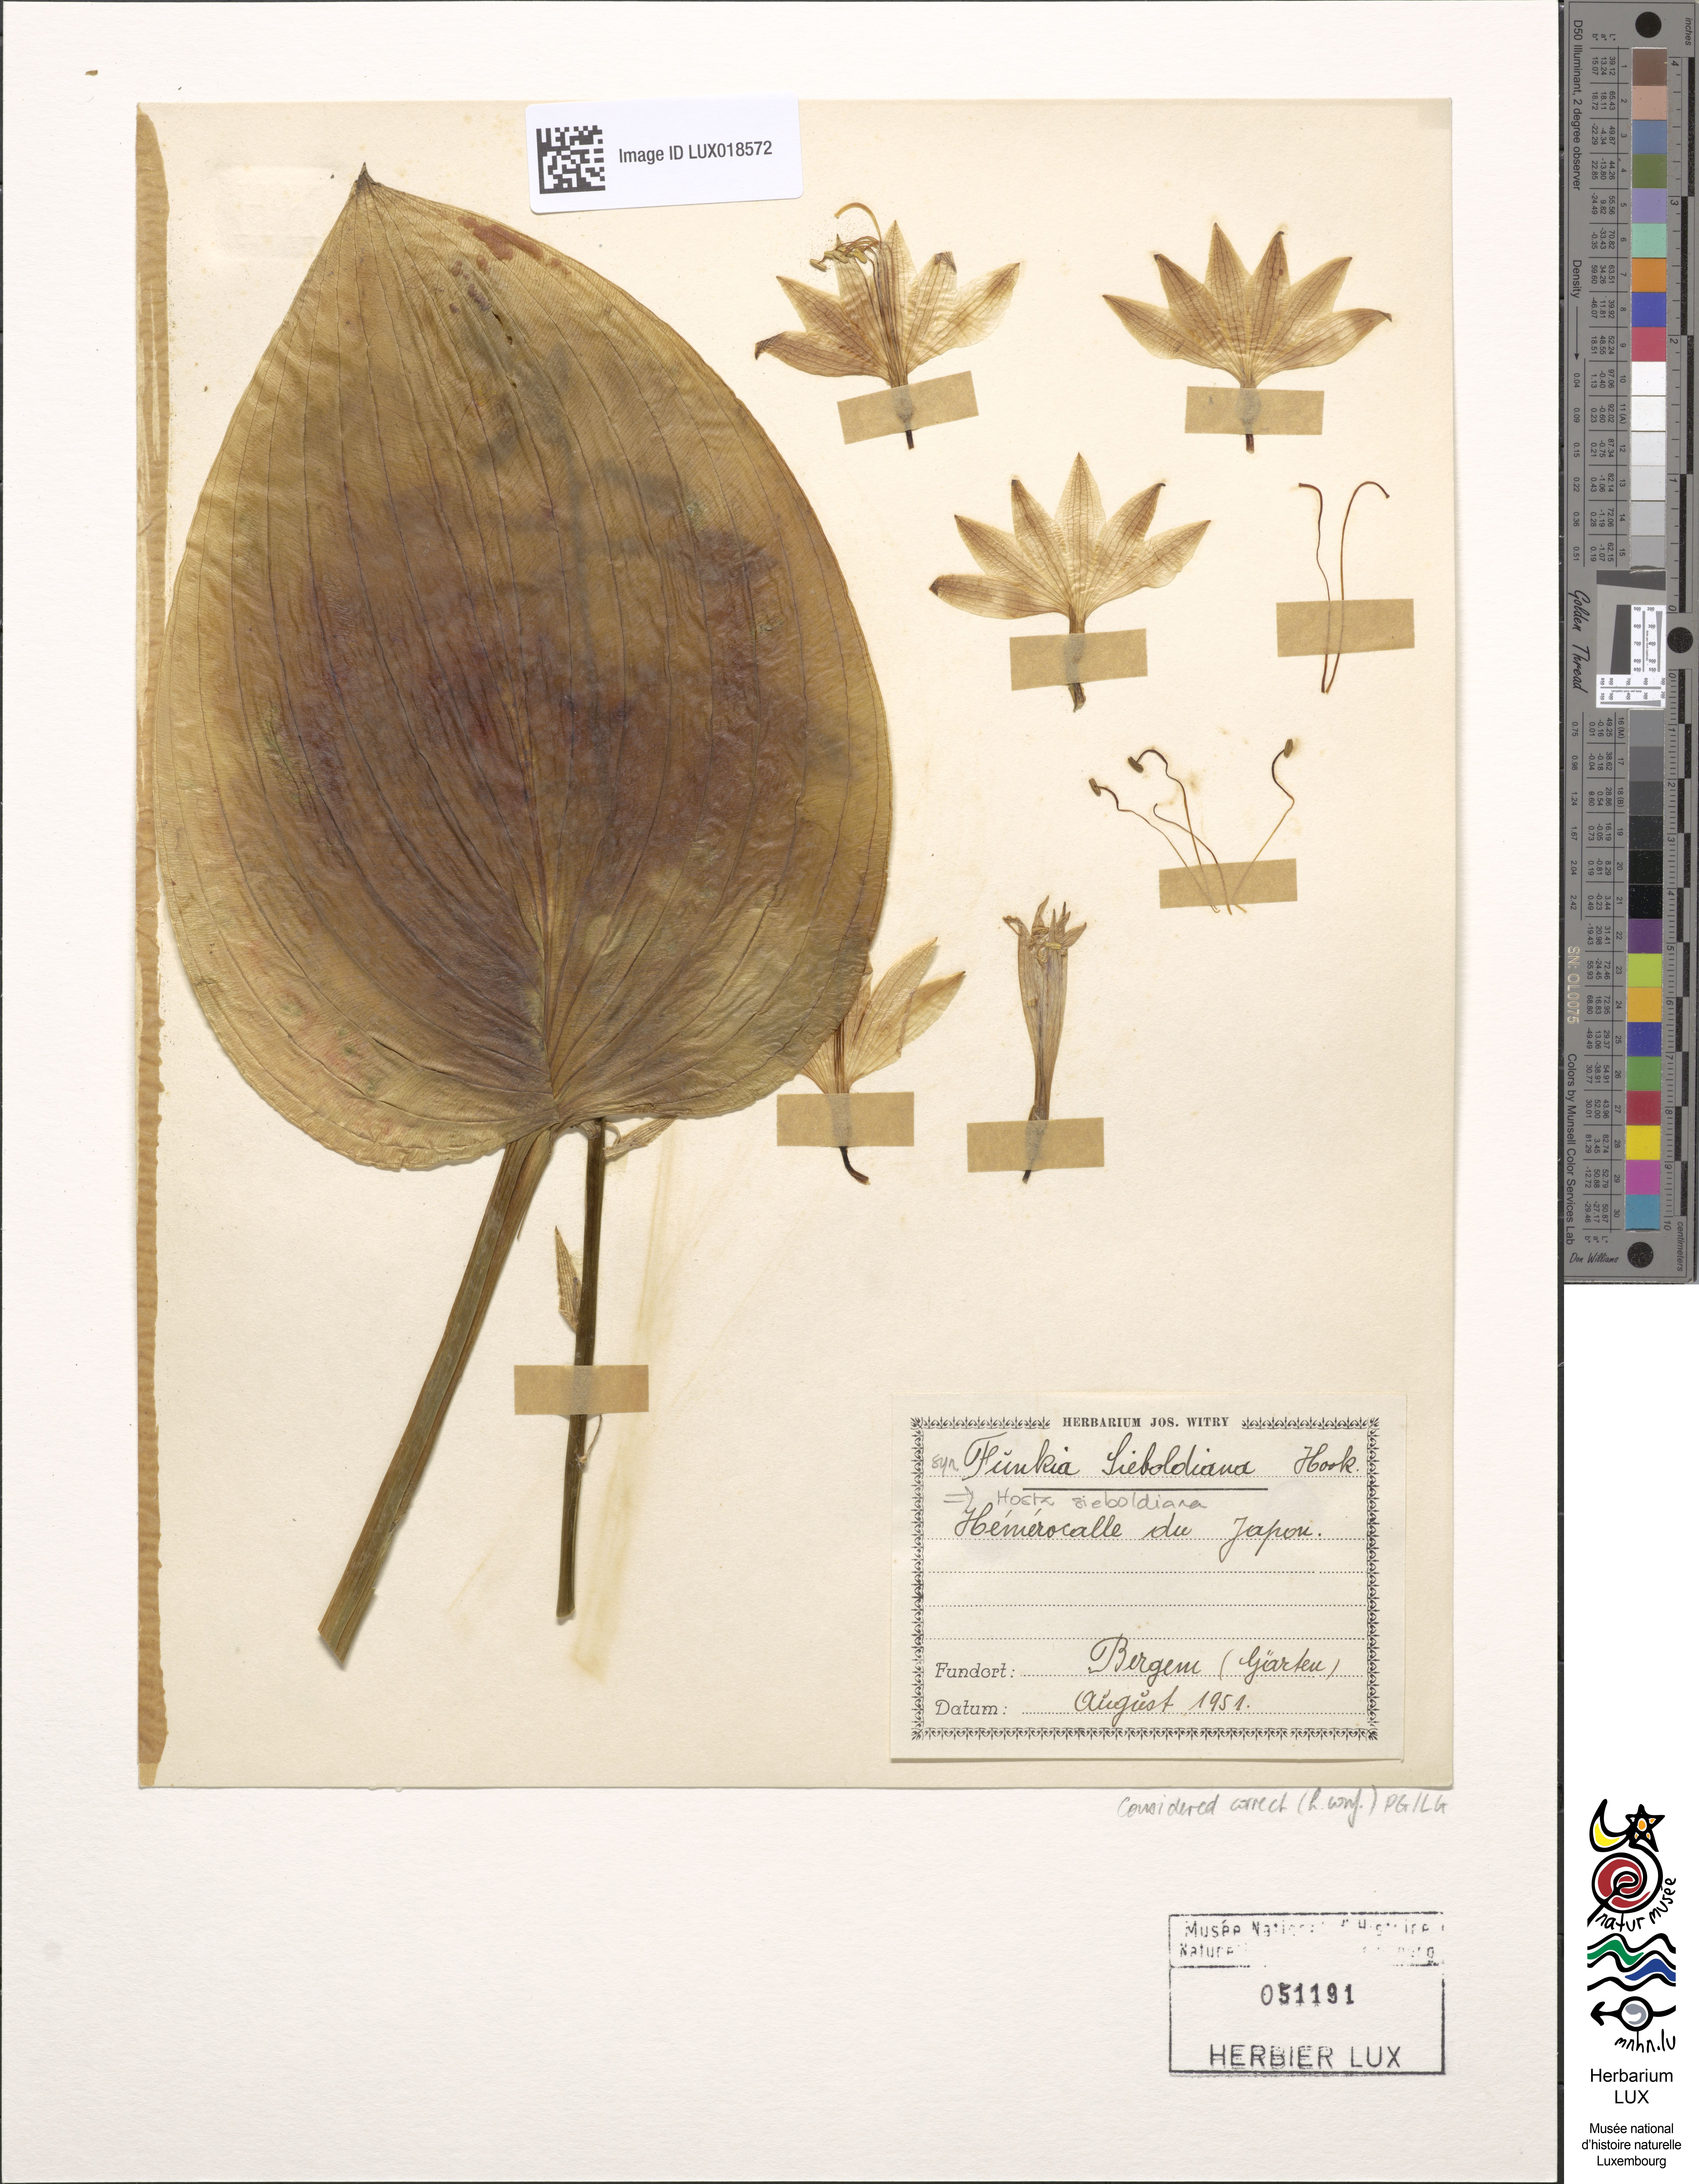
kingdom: Plantae
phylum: Tracheophyta
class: Liliopsida
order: Asparagales
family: Asparagaceae
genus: Hosta
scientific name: Hosta sieboldiana
